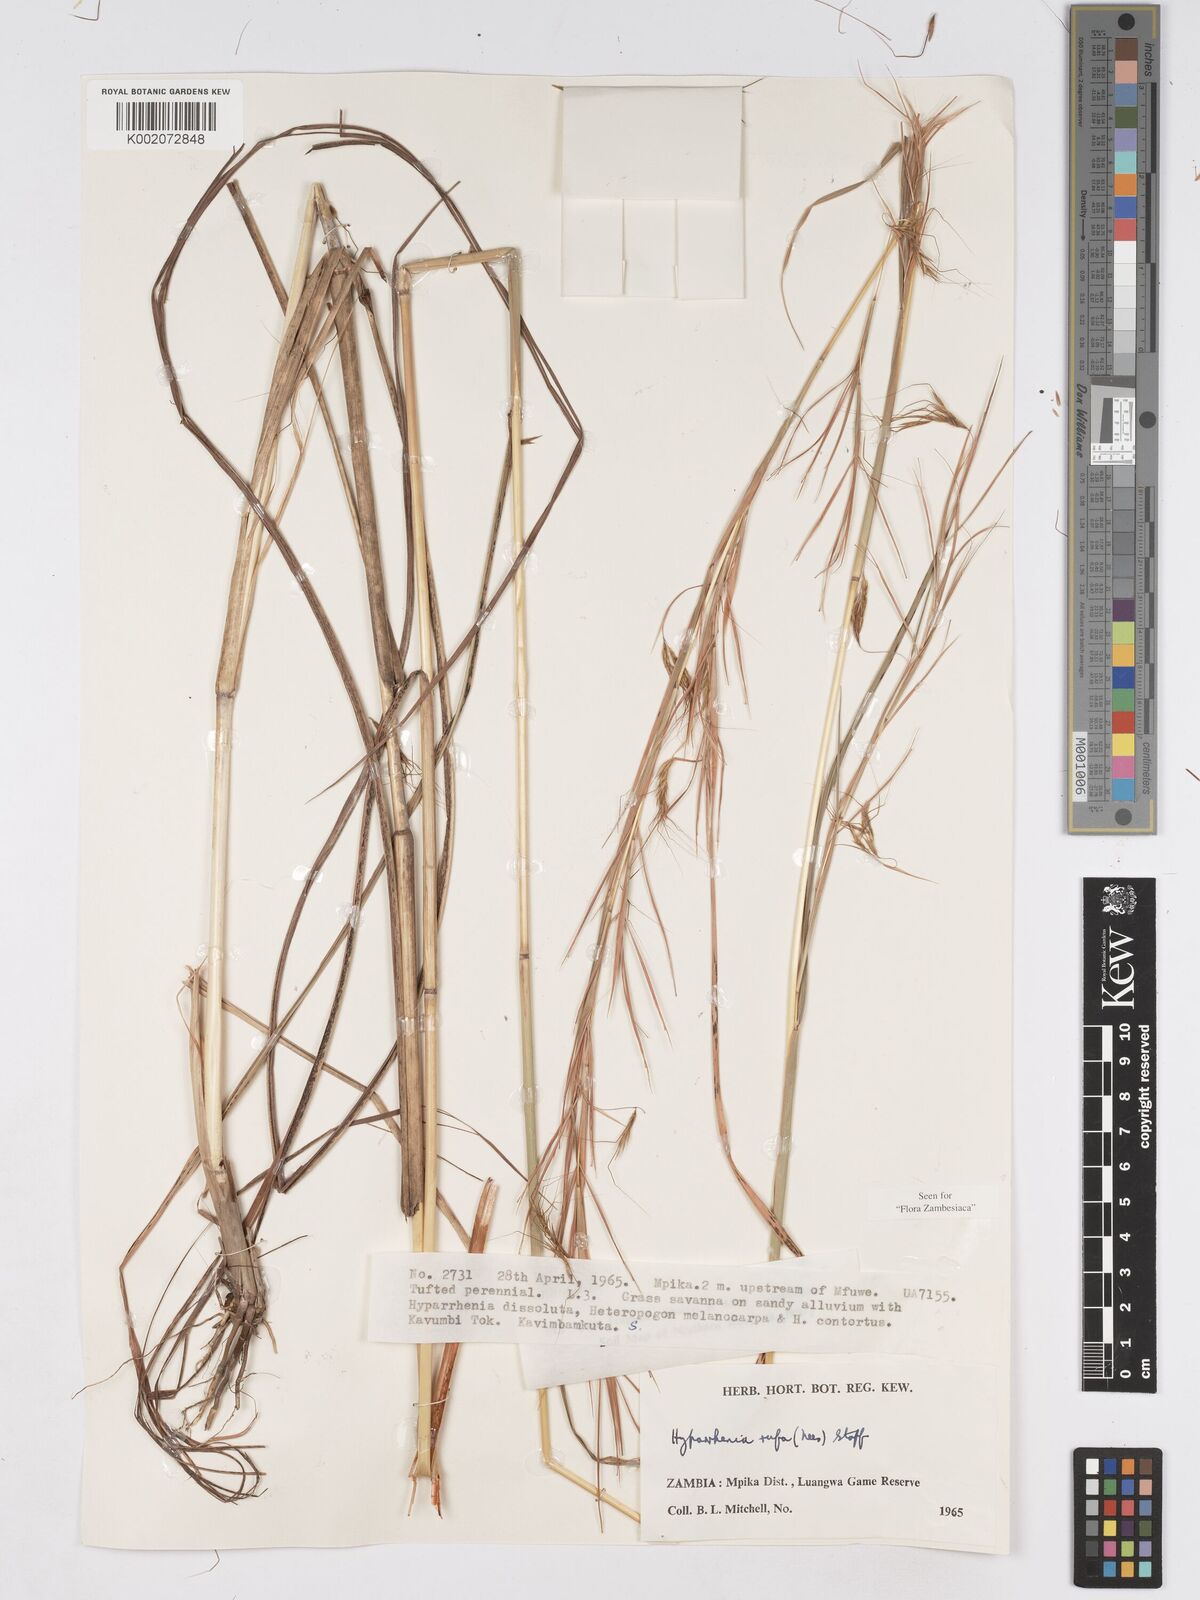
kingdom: Plantae
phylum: Tracheophyta
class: Liliopsida
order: Poales
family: Poaceae
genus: Hyparrhenia
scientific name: Hyparrhenia rufa
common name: Jaraguagrass
